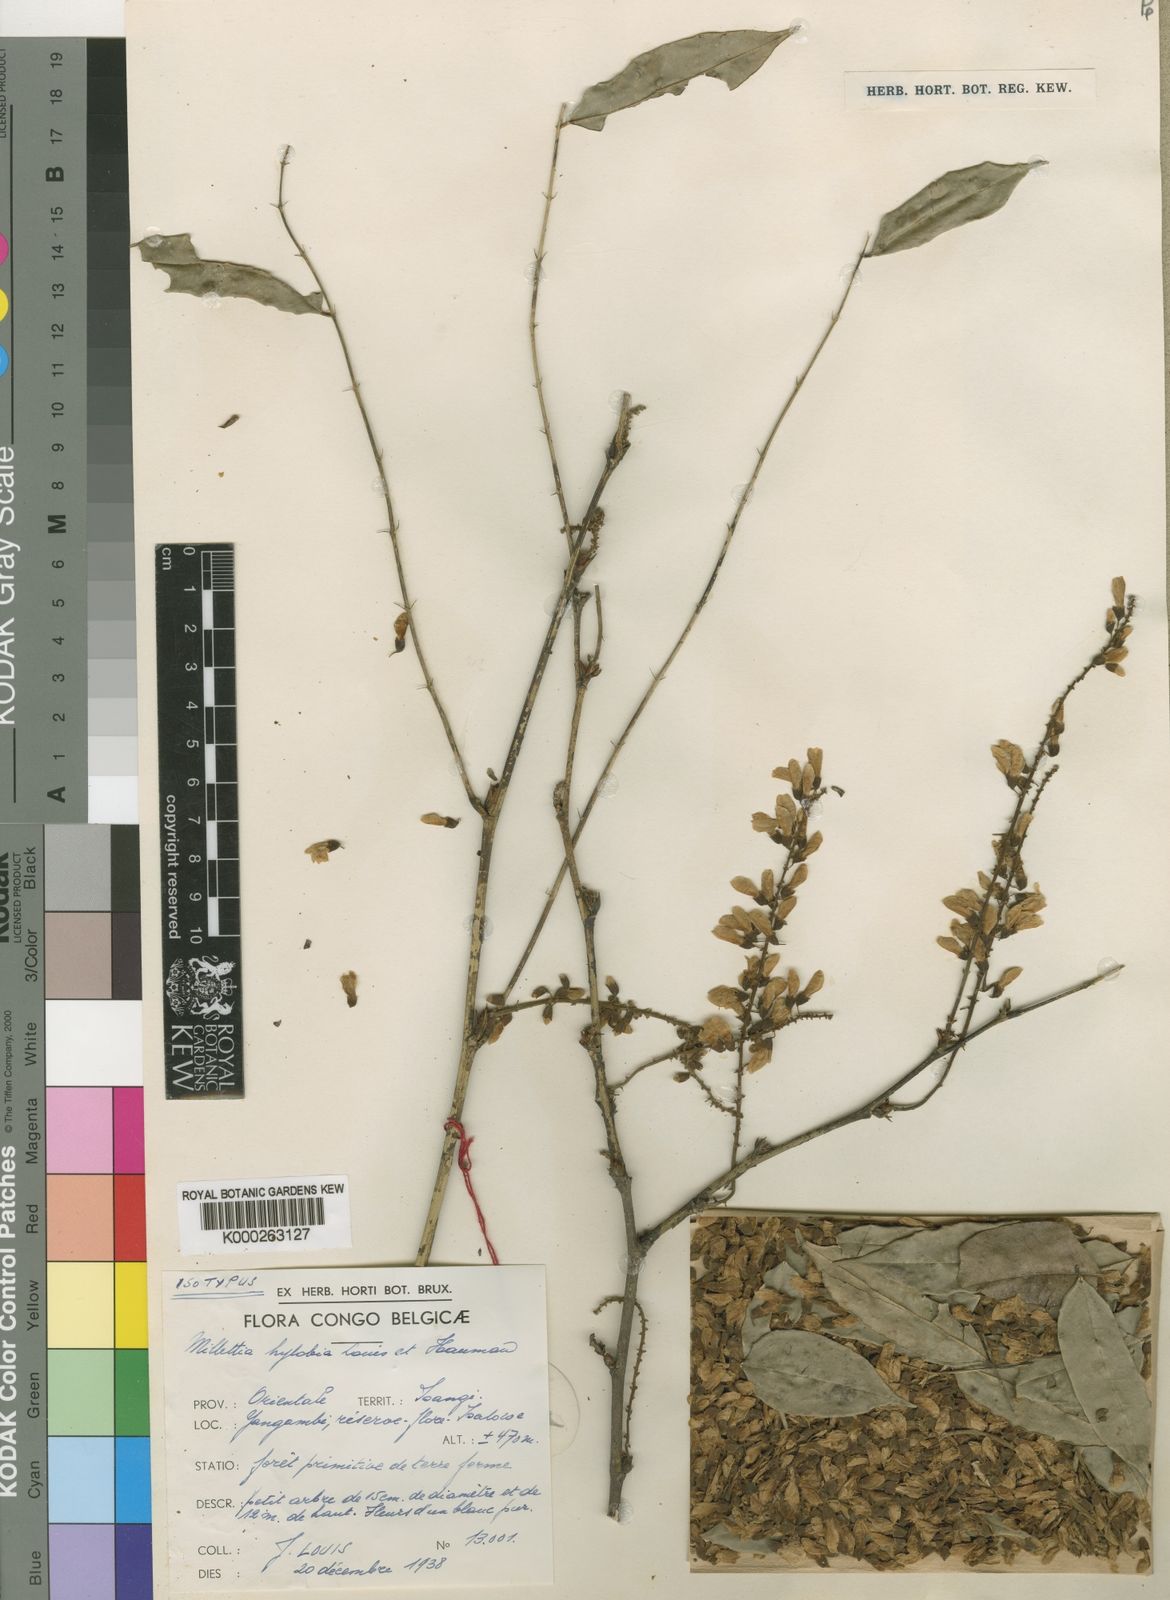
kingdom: Plantae
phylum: Tracheophyta
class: Magnoliopsida
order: Fabales
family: Fabaceae
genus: Millettia
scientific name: Millettia hylobia
